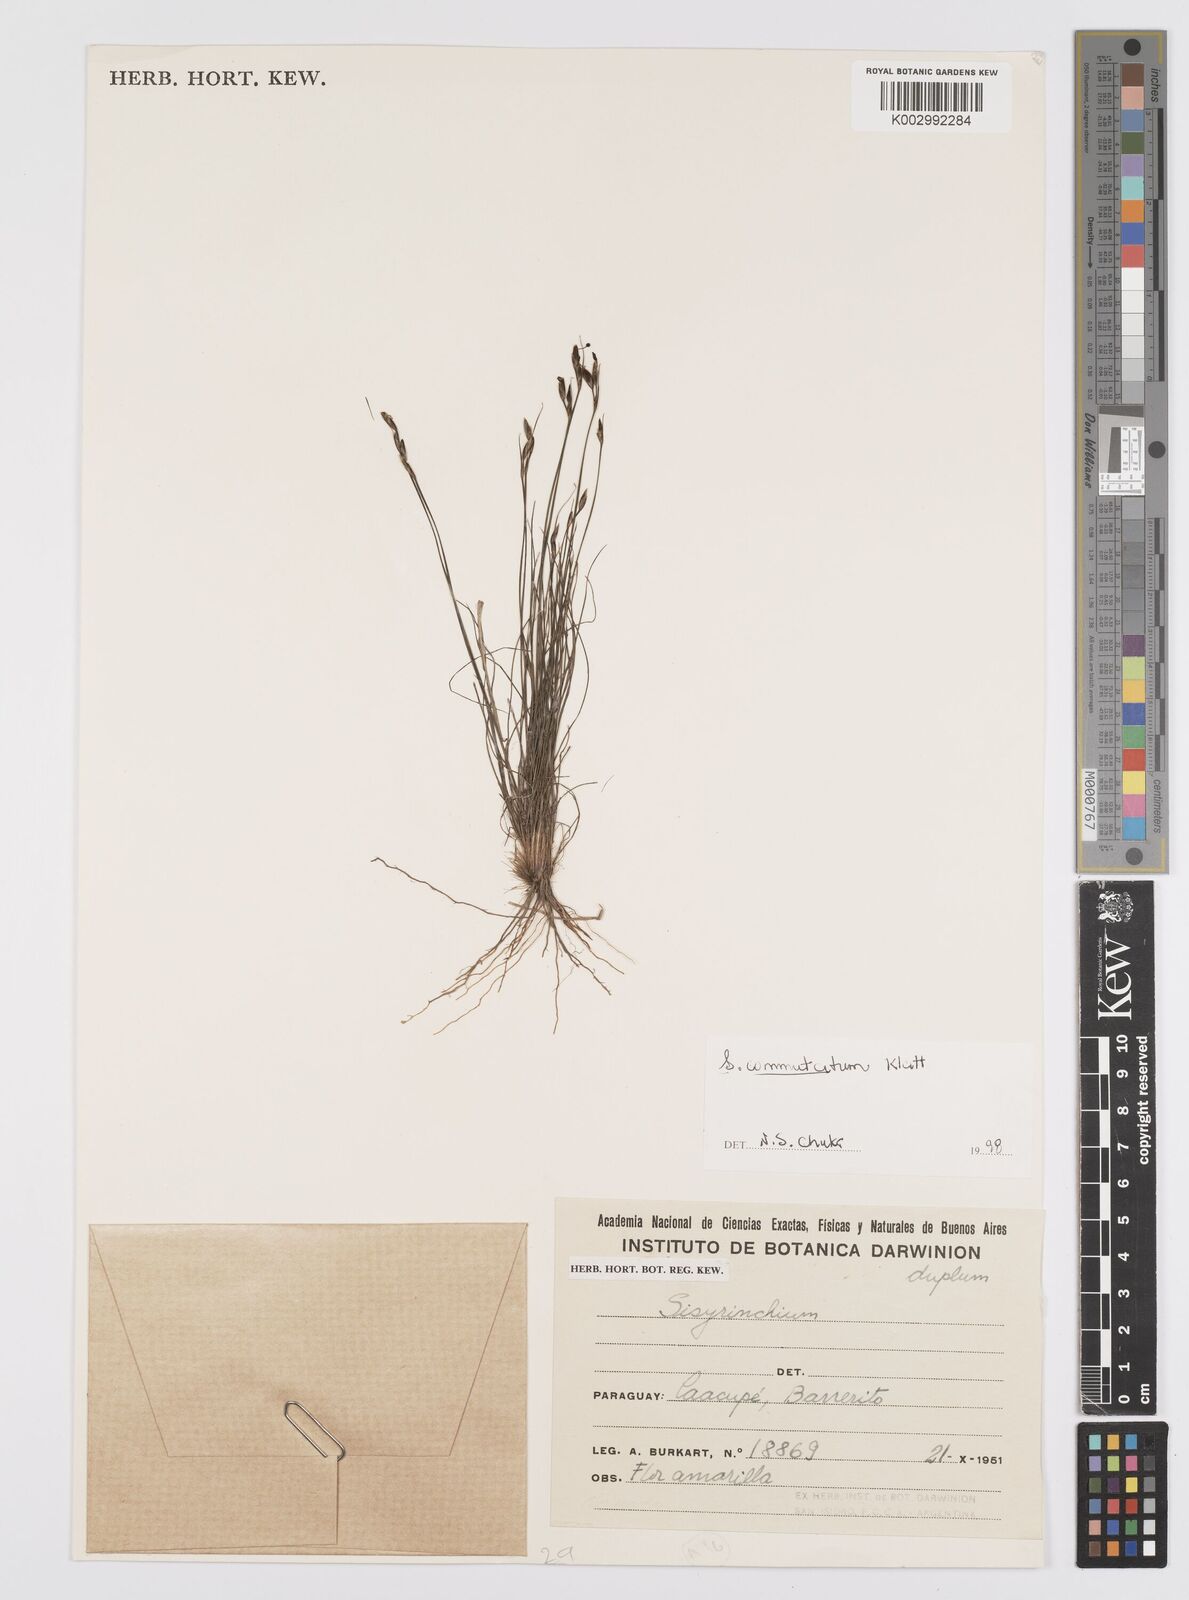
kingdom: Plantae
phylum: Tracheophyta
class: Liliopsida
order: Asparagales
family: Iridaceae
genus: Sisyrinchium
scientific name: Sisyrinchium commutatum
